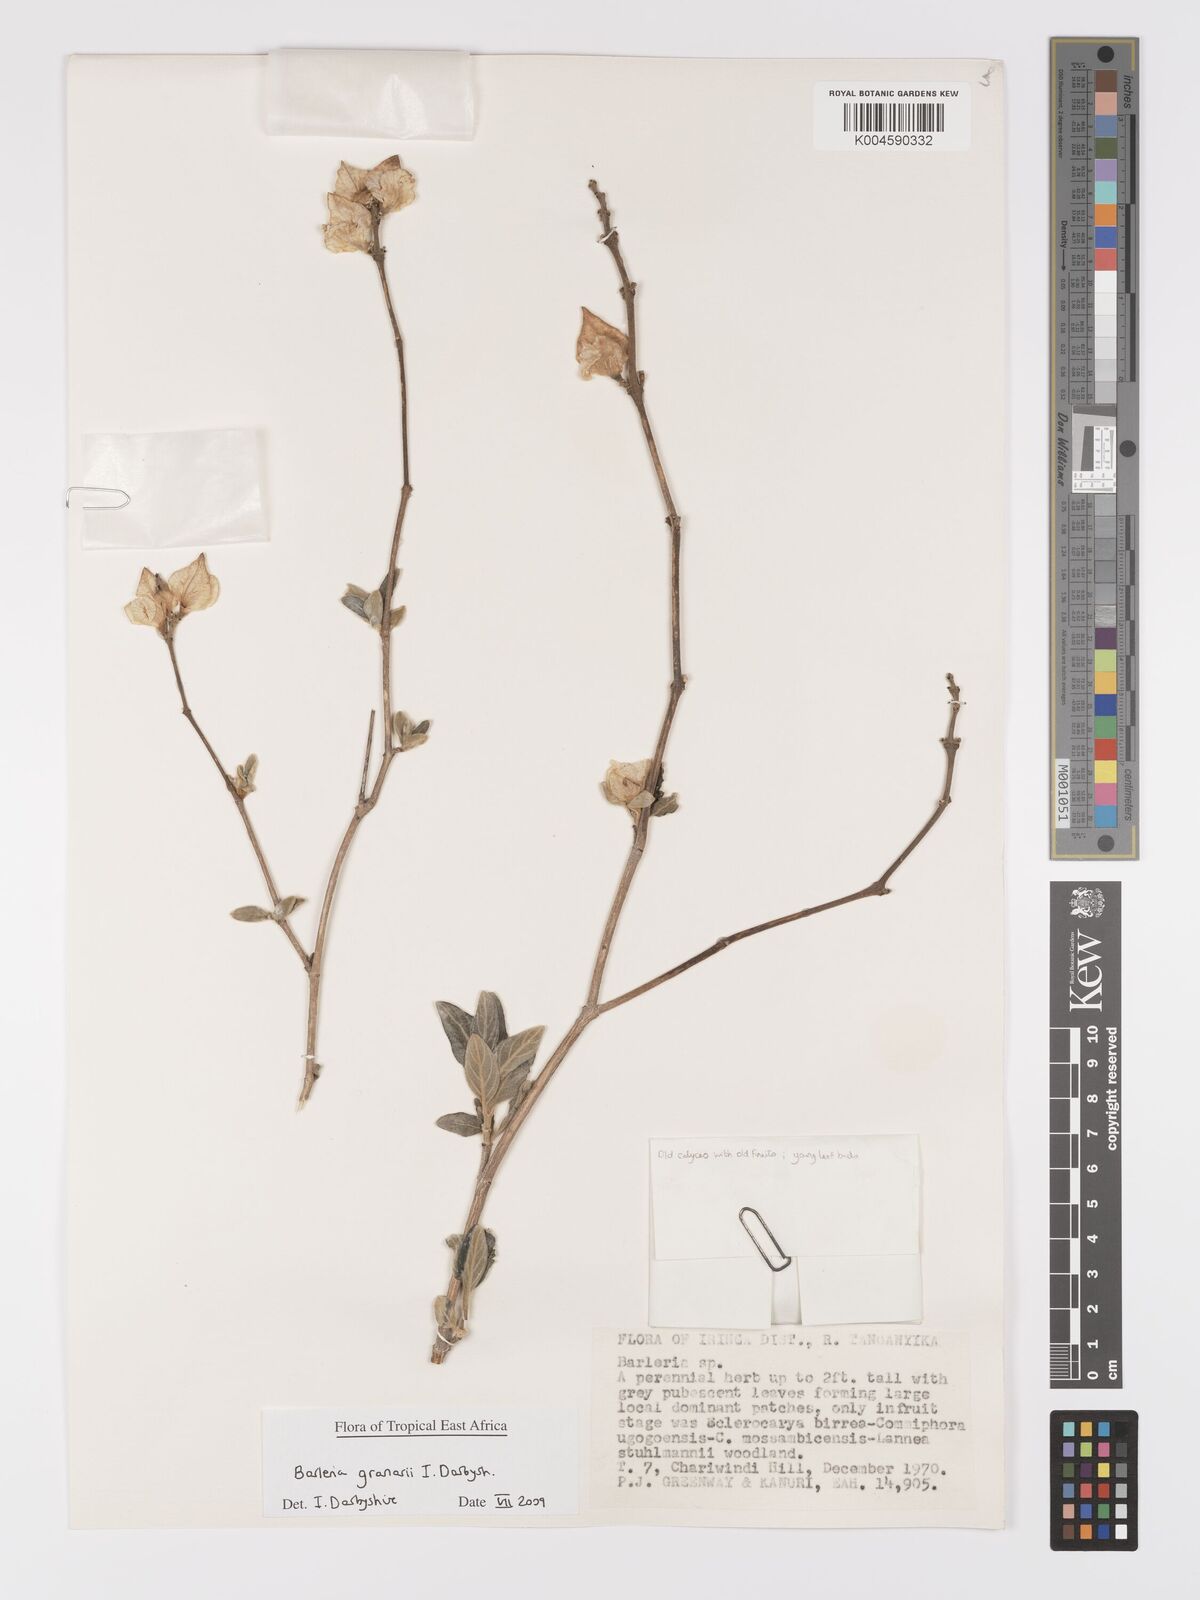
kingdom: Plantae
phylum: Tracheophyta
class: Magnoliopsida
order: Lamiales
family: Acanthaceae
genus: Barleria
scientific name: Barleria granarii
